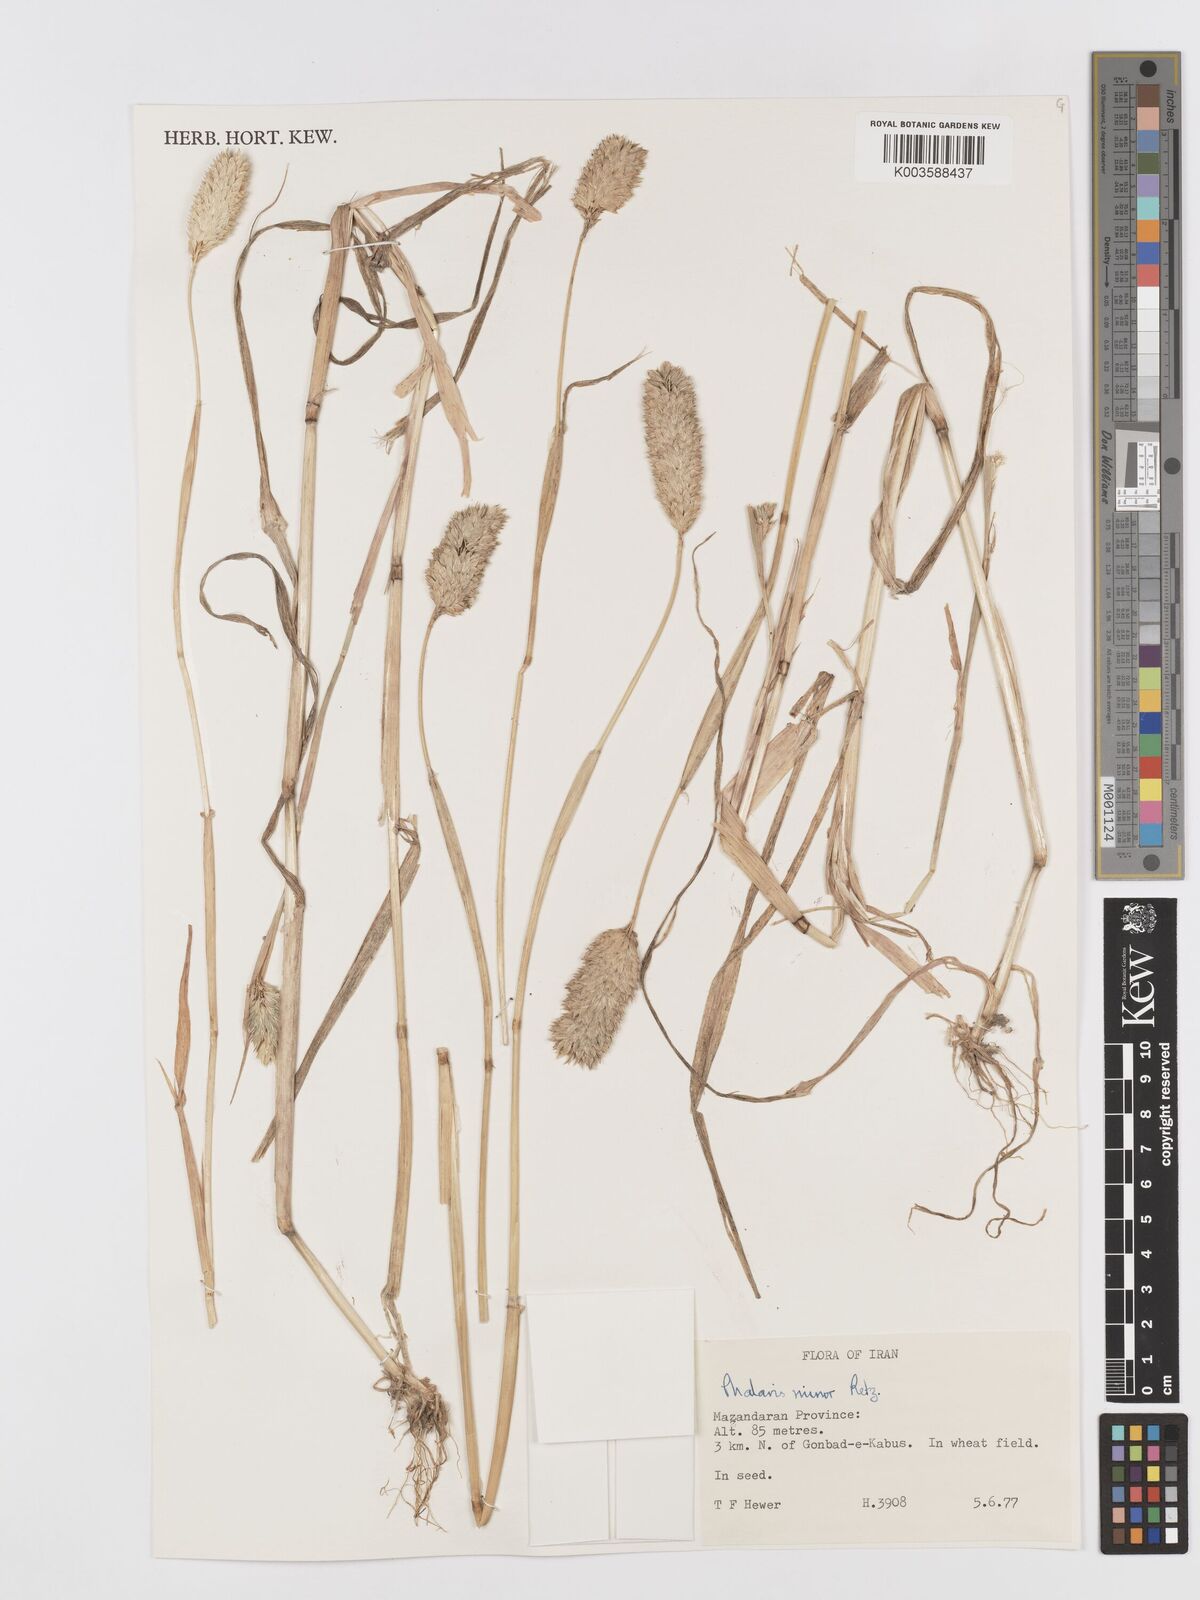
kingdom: Plantae
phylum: Tracheophyta
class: Liliopsida
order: Poales
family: Poaceae
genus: Phalaris
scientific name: Phalaris minor
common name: Littleseed canarygrass
